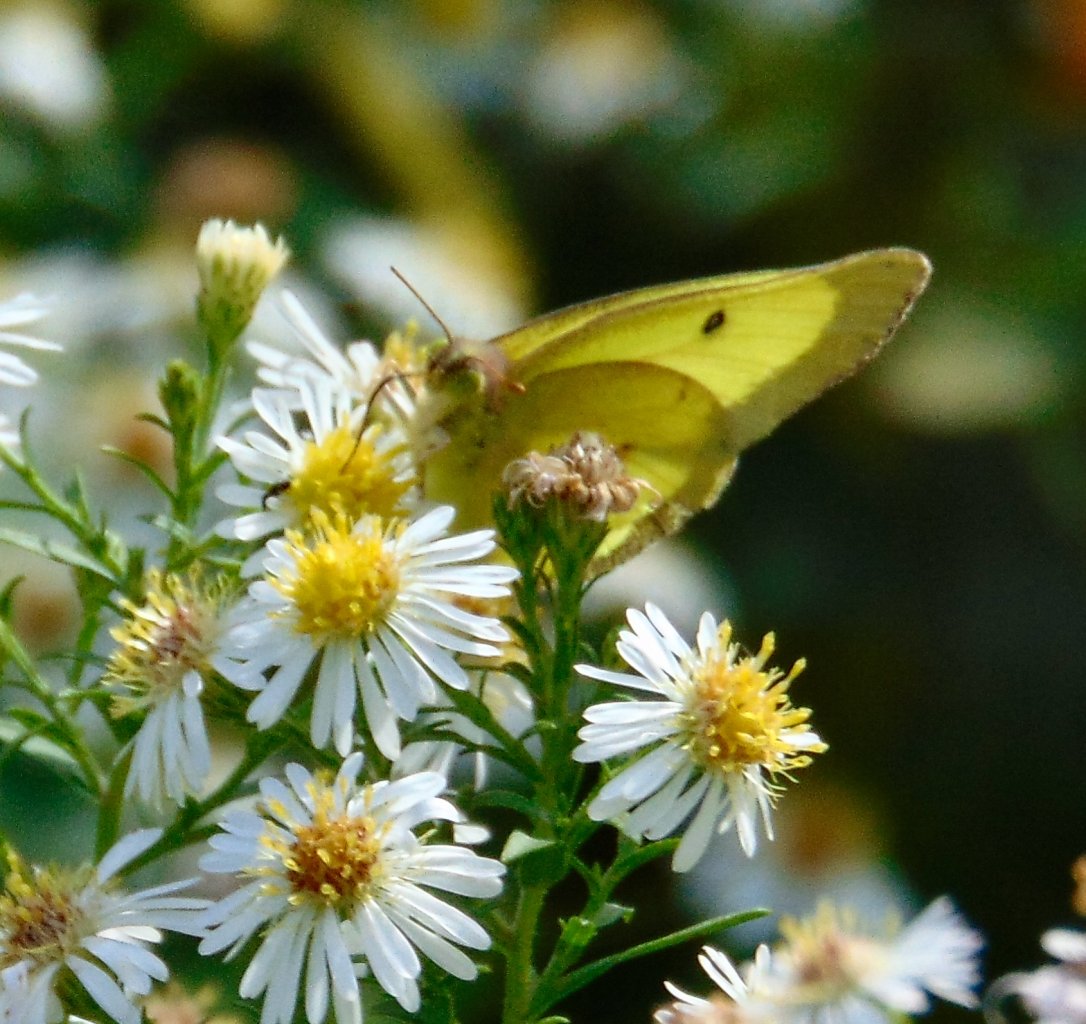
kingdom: Animalia
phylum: Arthropoda
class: Insecta
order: Lepidoptera
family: Pieridae
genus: Colias
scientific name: Colias philodice
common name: Clouded Sulphur
